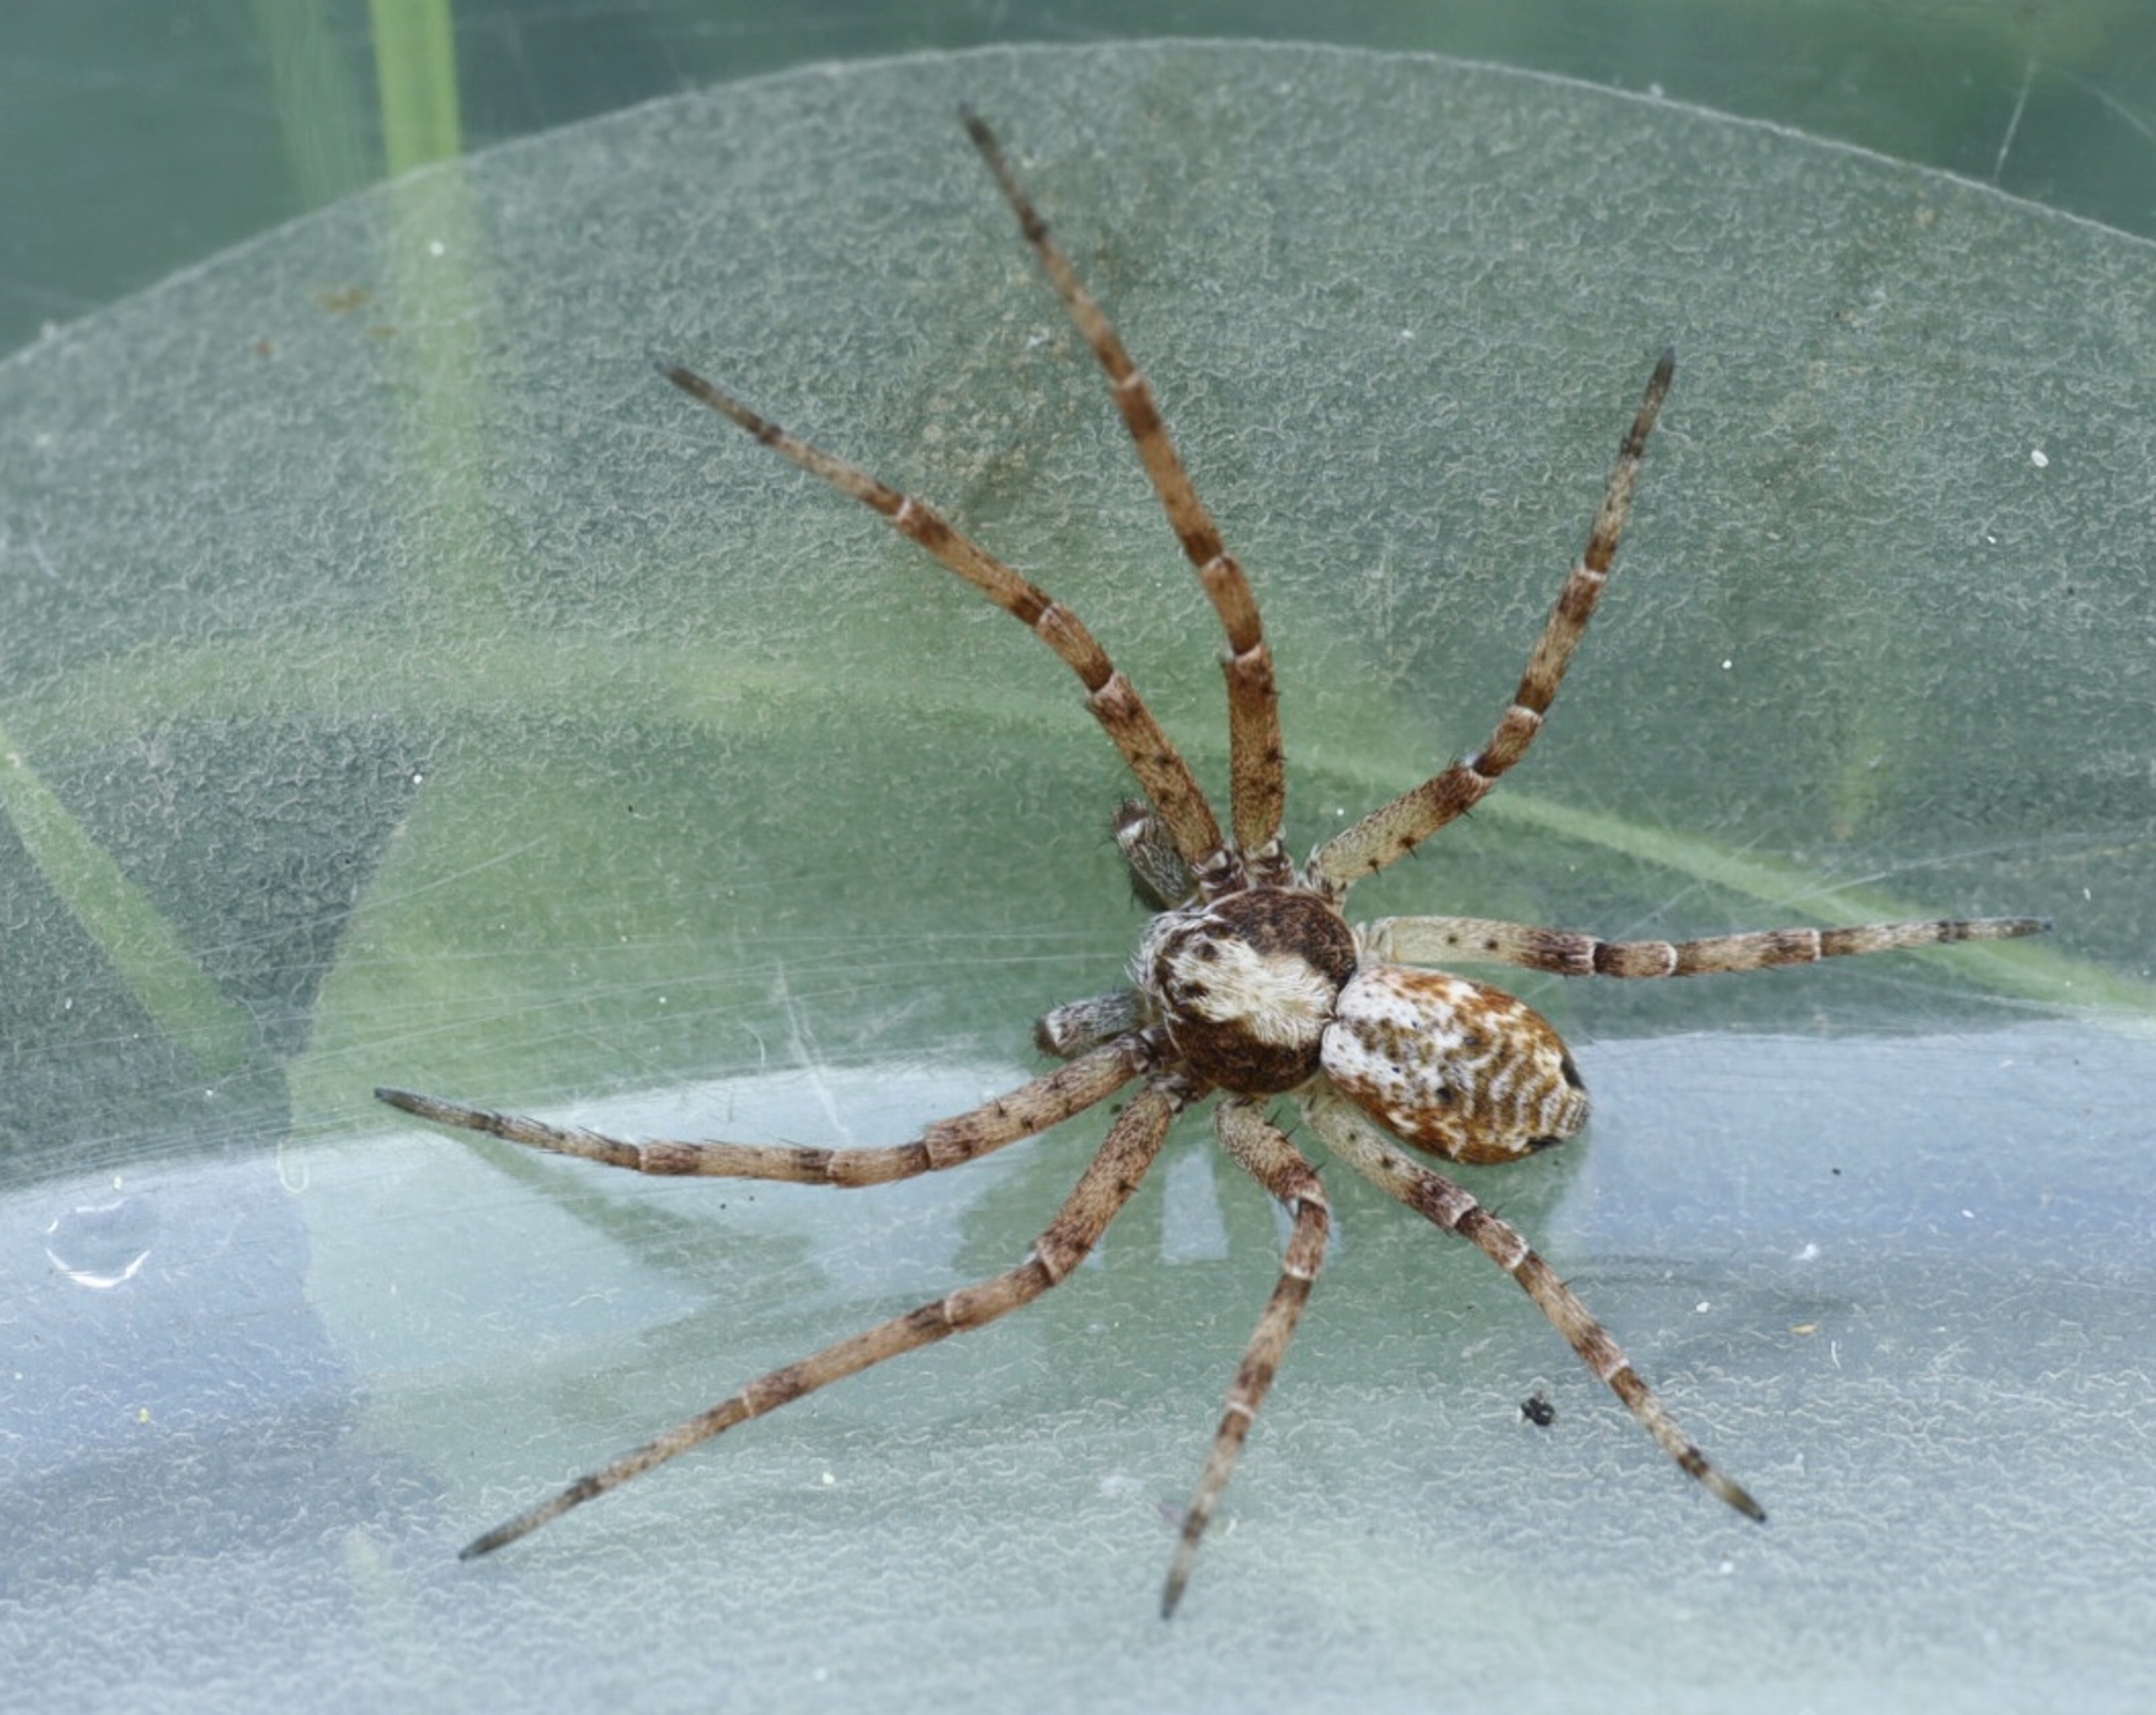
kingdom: Animalia
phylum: Arthropoda
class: Arachnida
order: Araneae
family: Philodromidae
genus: Philodromus
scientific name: Philodromus cespitum
